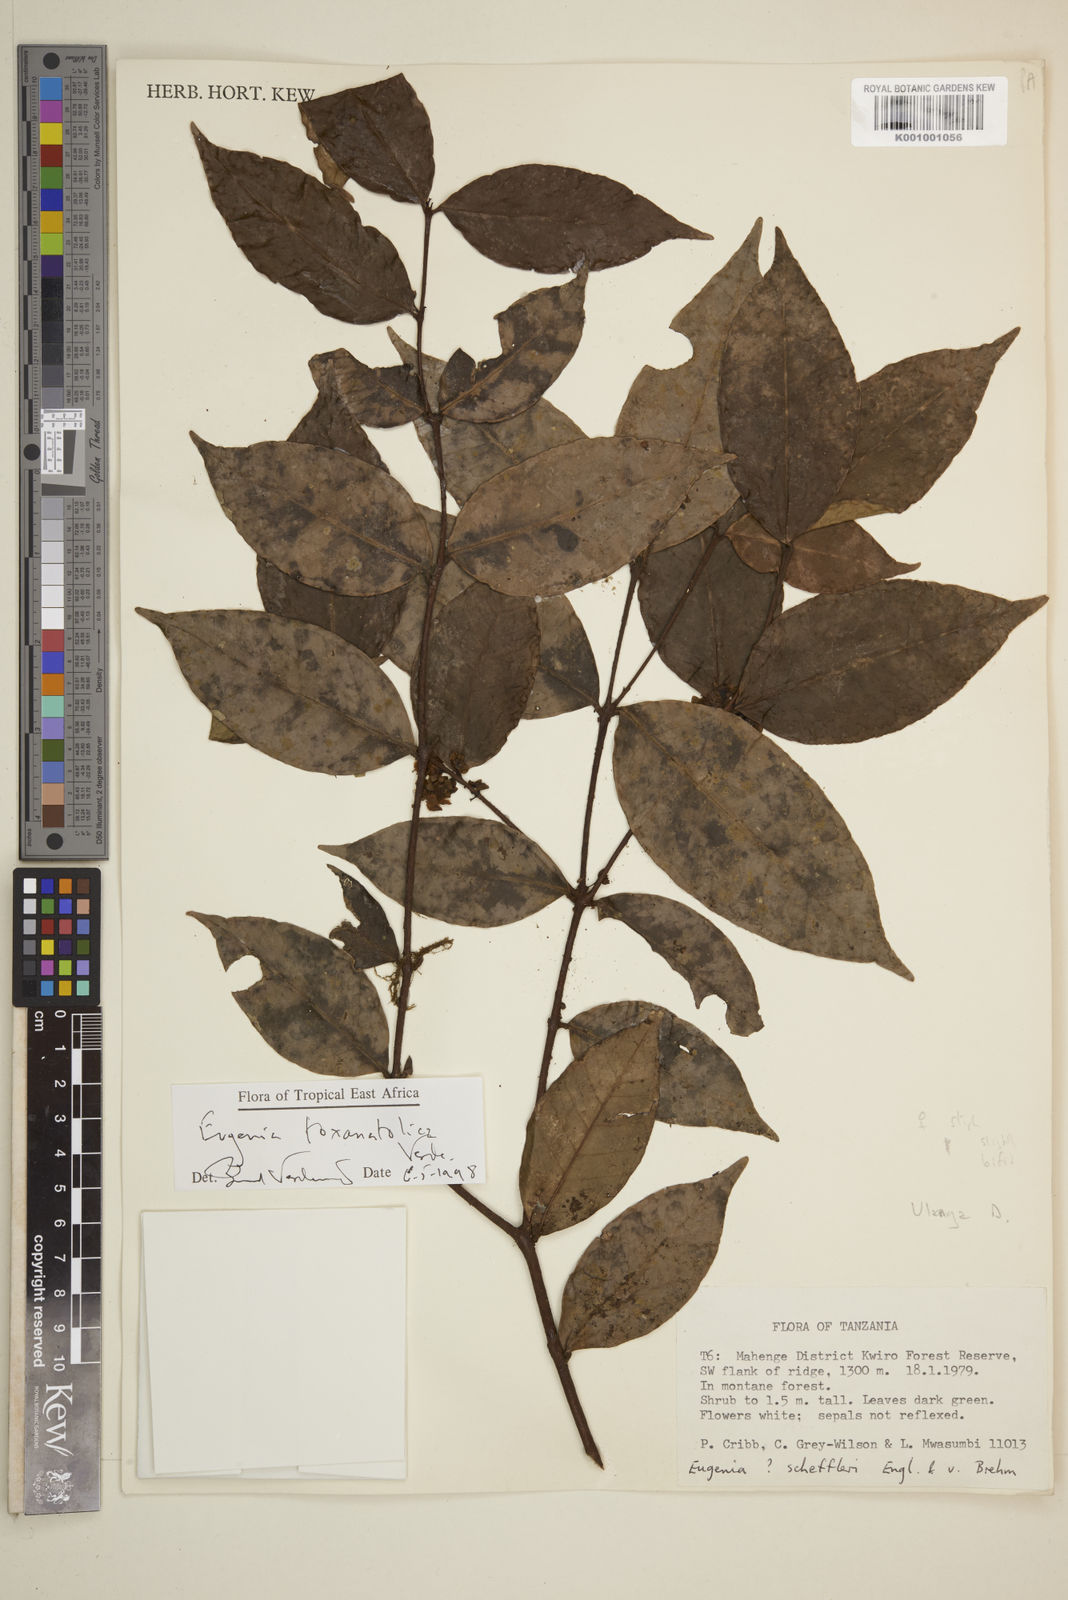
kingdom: Plantae
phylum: Tracheophyta
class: Magnoliopsida
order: Myrtales
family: Myrtaceae
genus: Eugenia
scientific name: Eugenia toxanatolica
